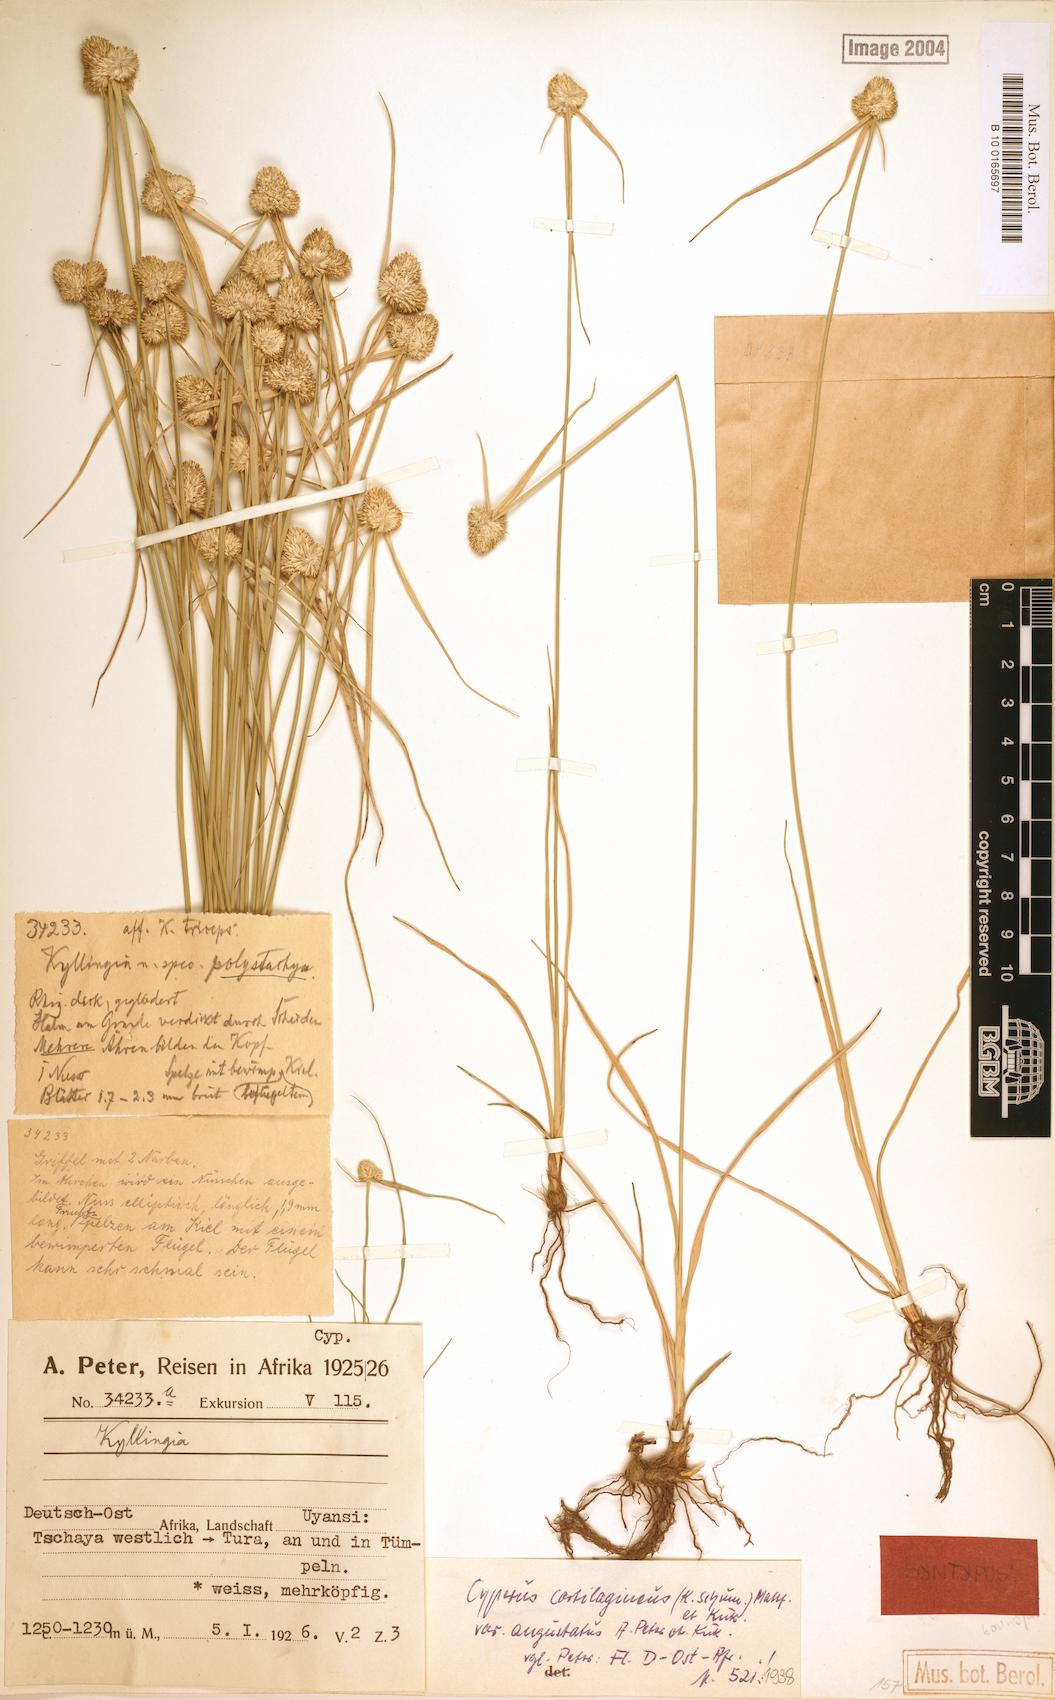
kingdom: Plantae
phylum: Tracheophyta
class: Liliopsida
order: Poales
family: Cyperaceae
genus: Cyperus
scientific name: Cyperus comosipes
